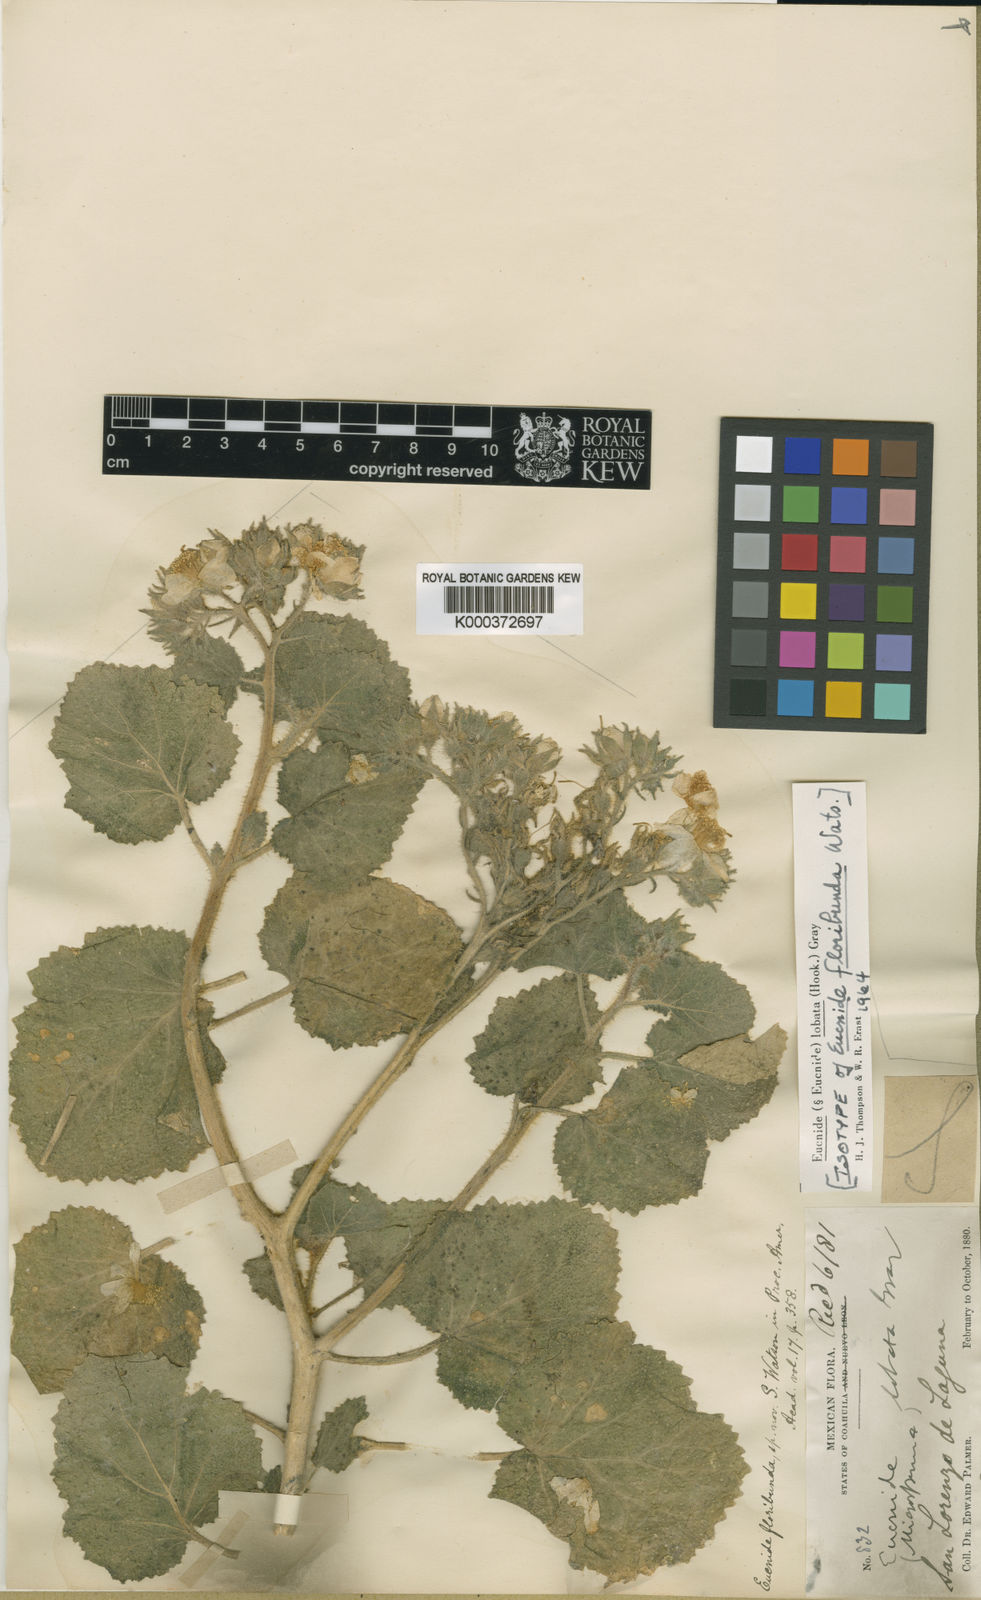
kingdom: Plantae
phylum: Tracheophyta
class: Magnoliopsida
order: Cornales
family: Loasaceae
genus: Eucnide
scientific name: Eucnide floribunda
